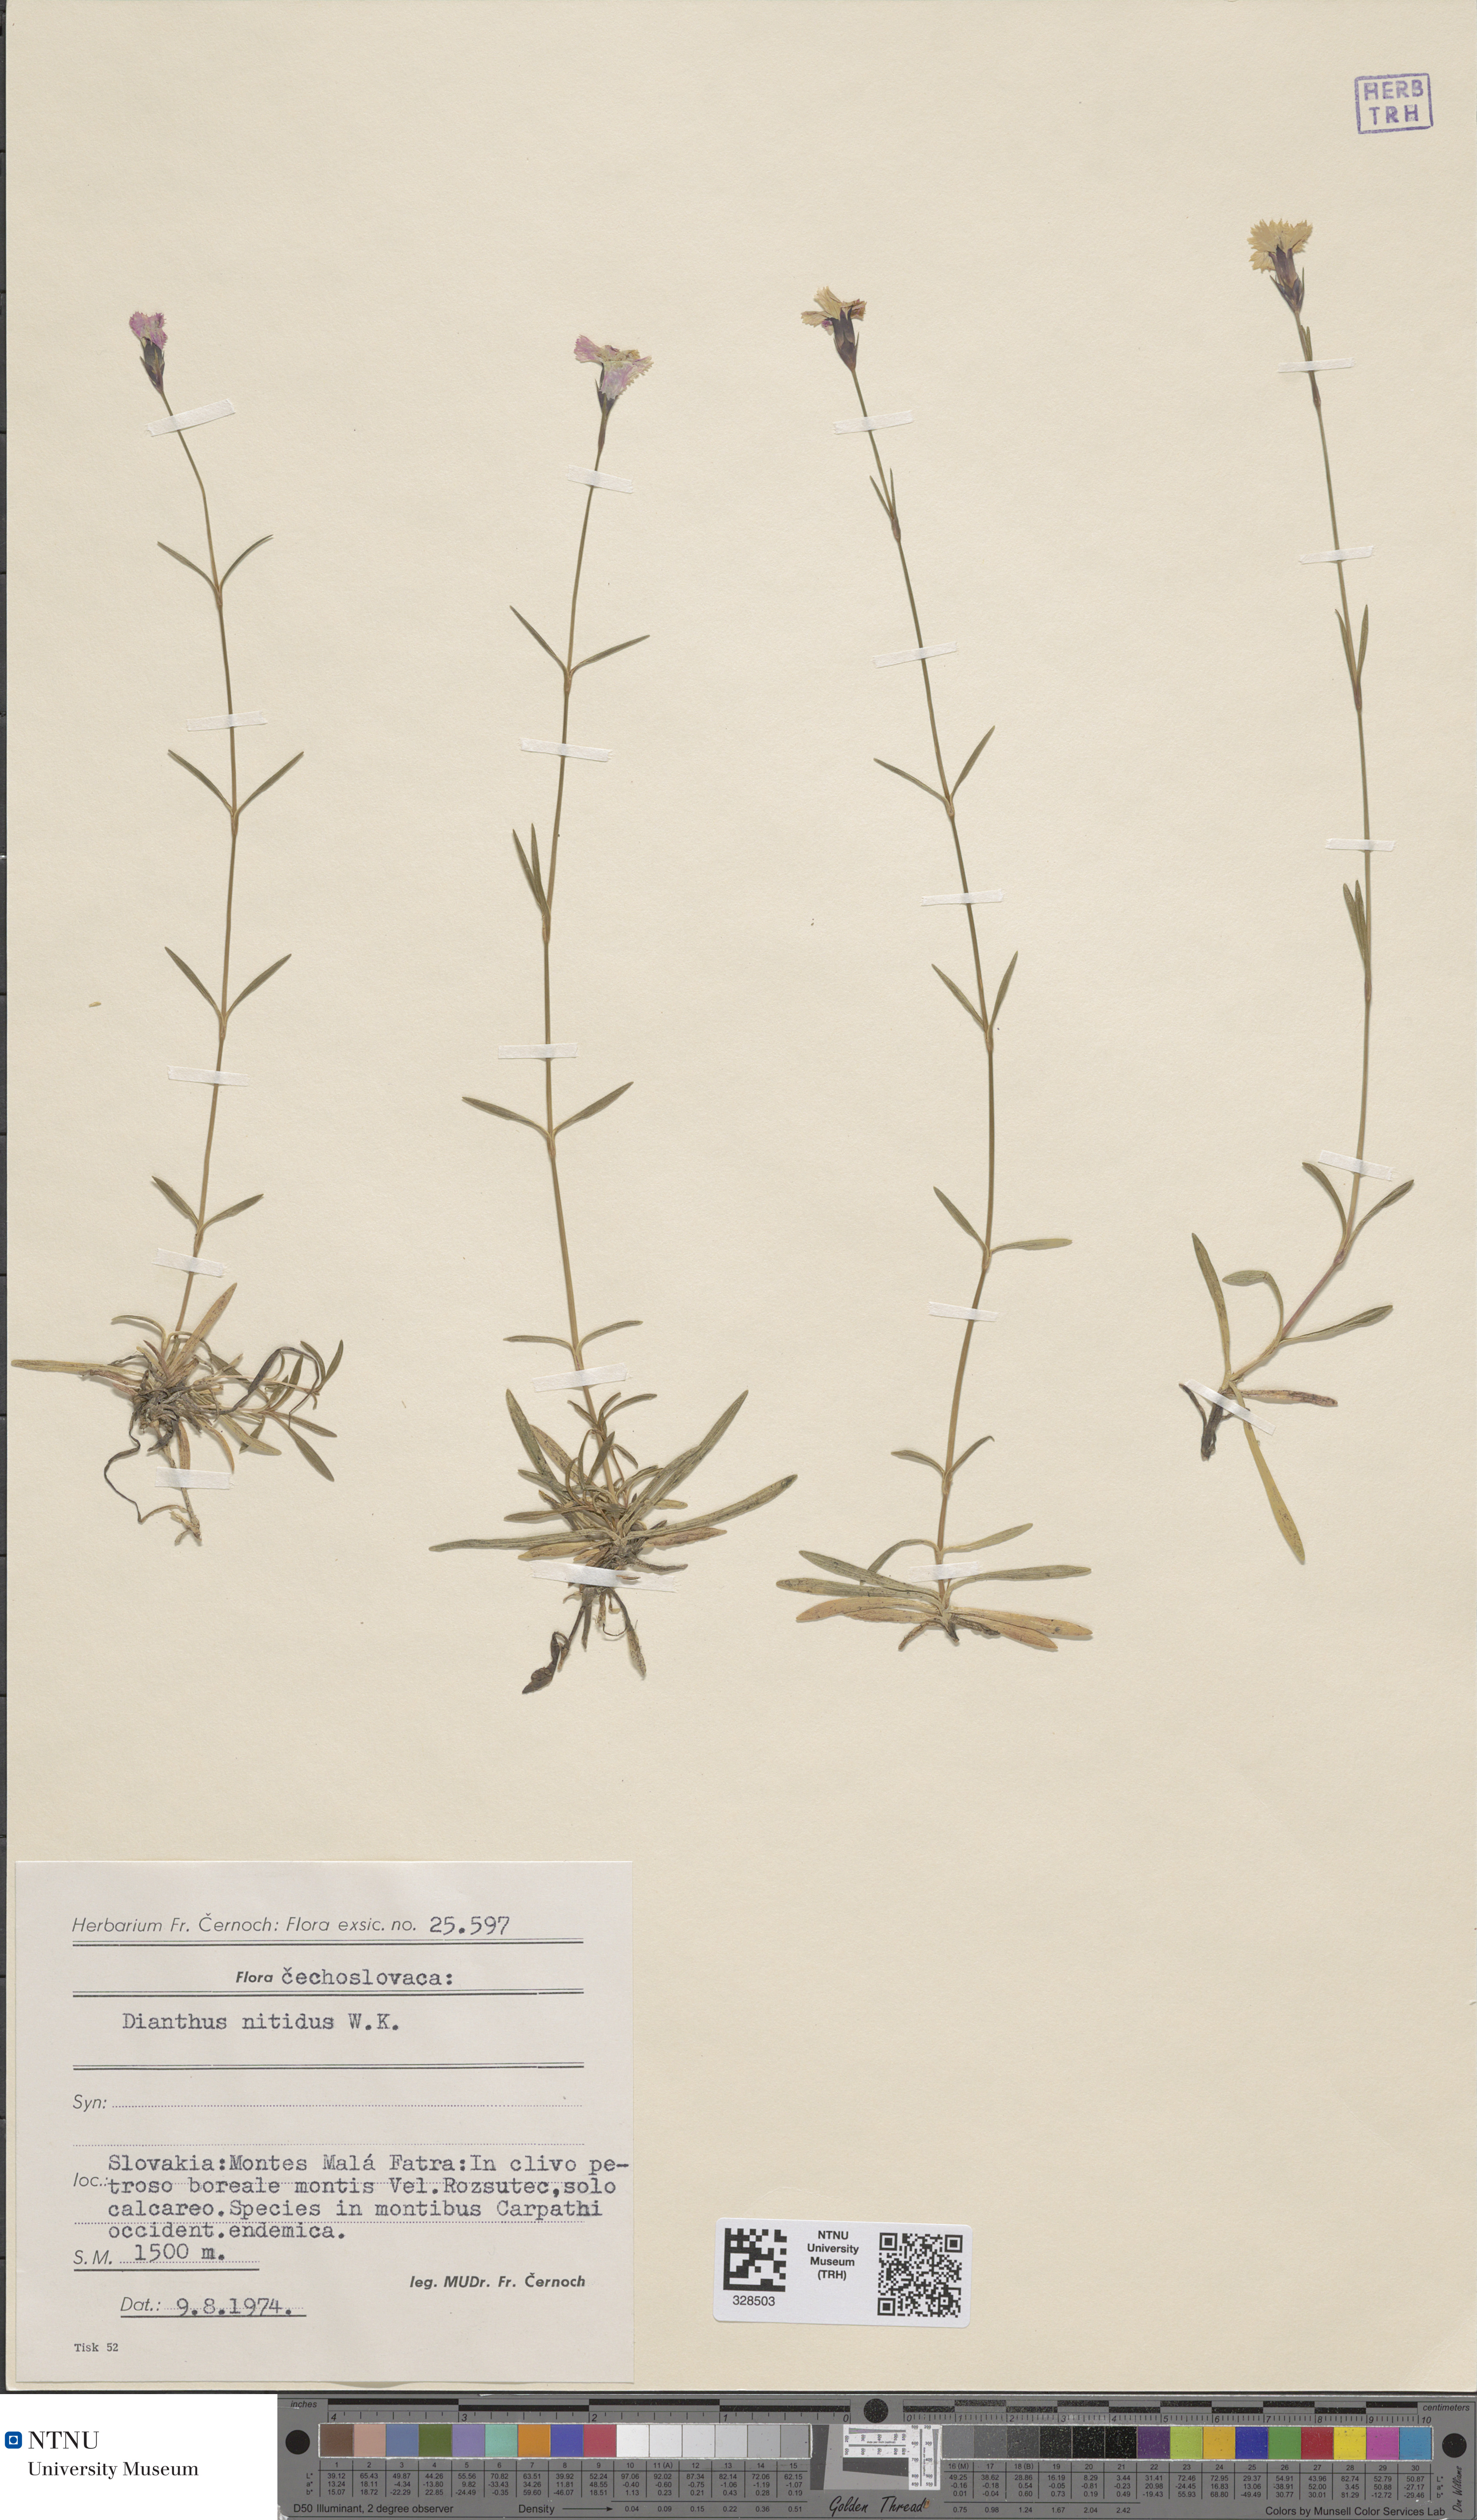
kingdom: Plantae
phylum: Tracheophyta
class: Magnoliopsida
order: Caryophyllales
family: Caryophyllaceae
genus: Dianthus
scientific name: Dianthus nitidus
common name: Carpathian glossy pink
